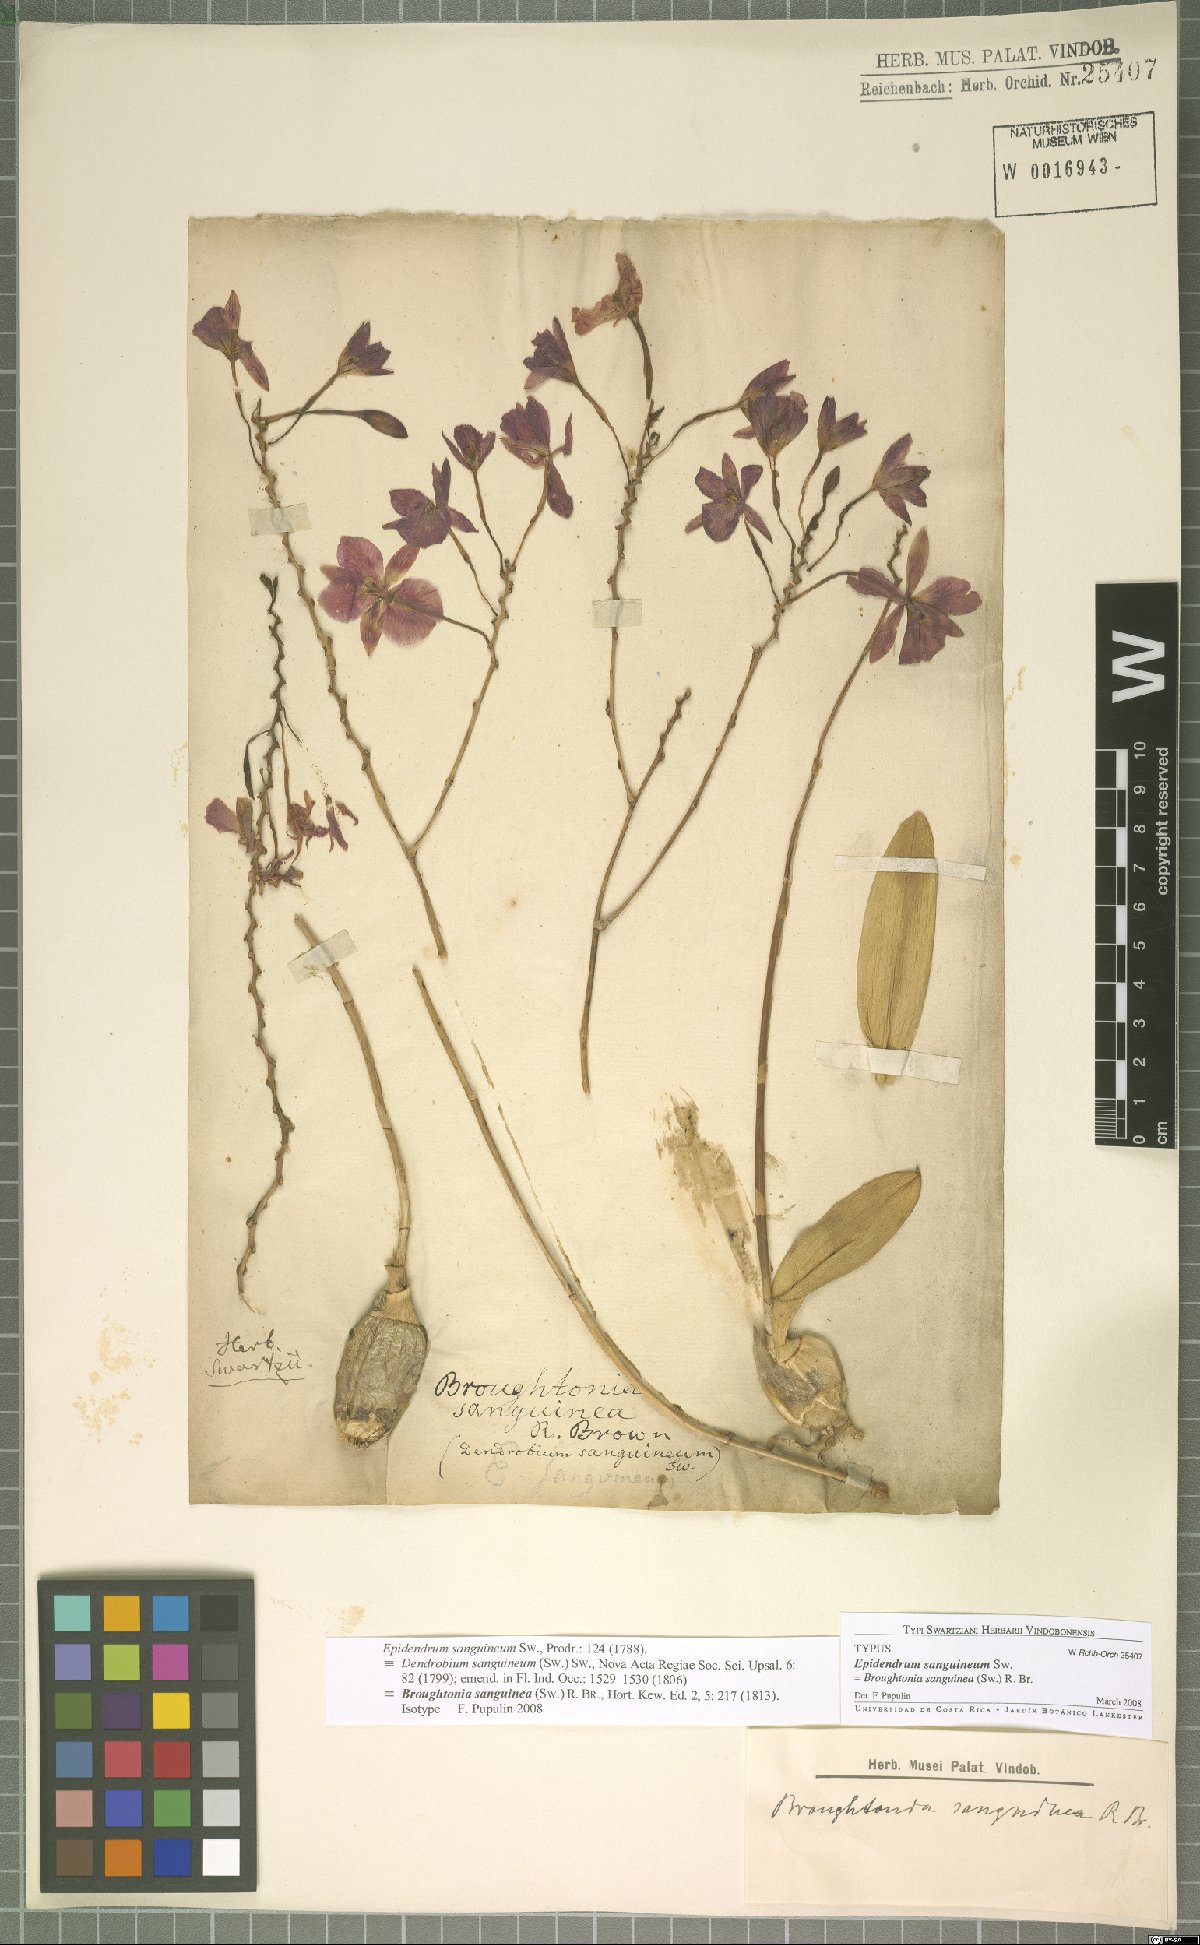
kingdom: Plantae
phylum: Tracheophyta
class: Liliopsida
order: Asparagales
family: Orchidaceae
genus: Broughtonia
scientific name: Broughtonia sanguinea
